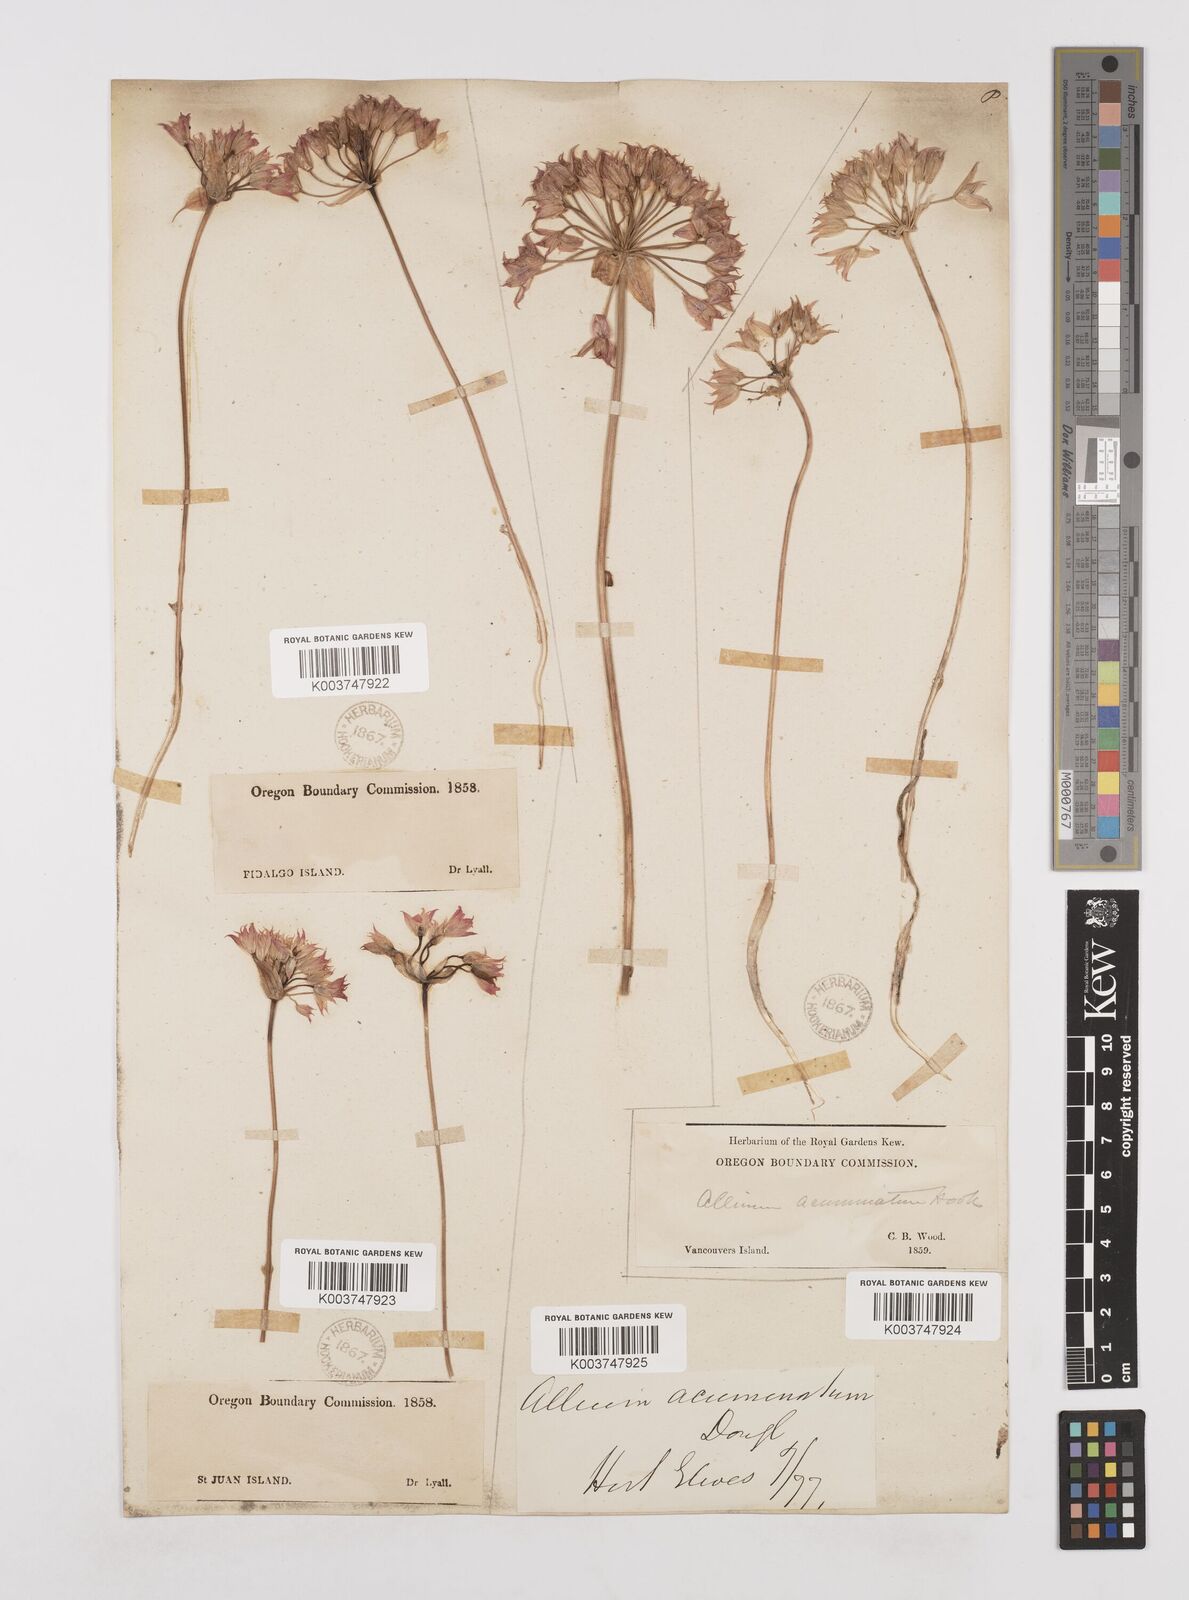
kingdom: Plantae
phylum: Tracheophyta
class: Liliopsida
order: Asparagales
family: Amaryllidaceae
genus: Allium
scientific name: Allium acuminatum
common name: Hooker's onion
